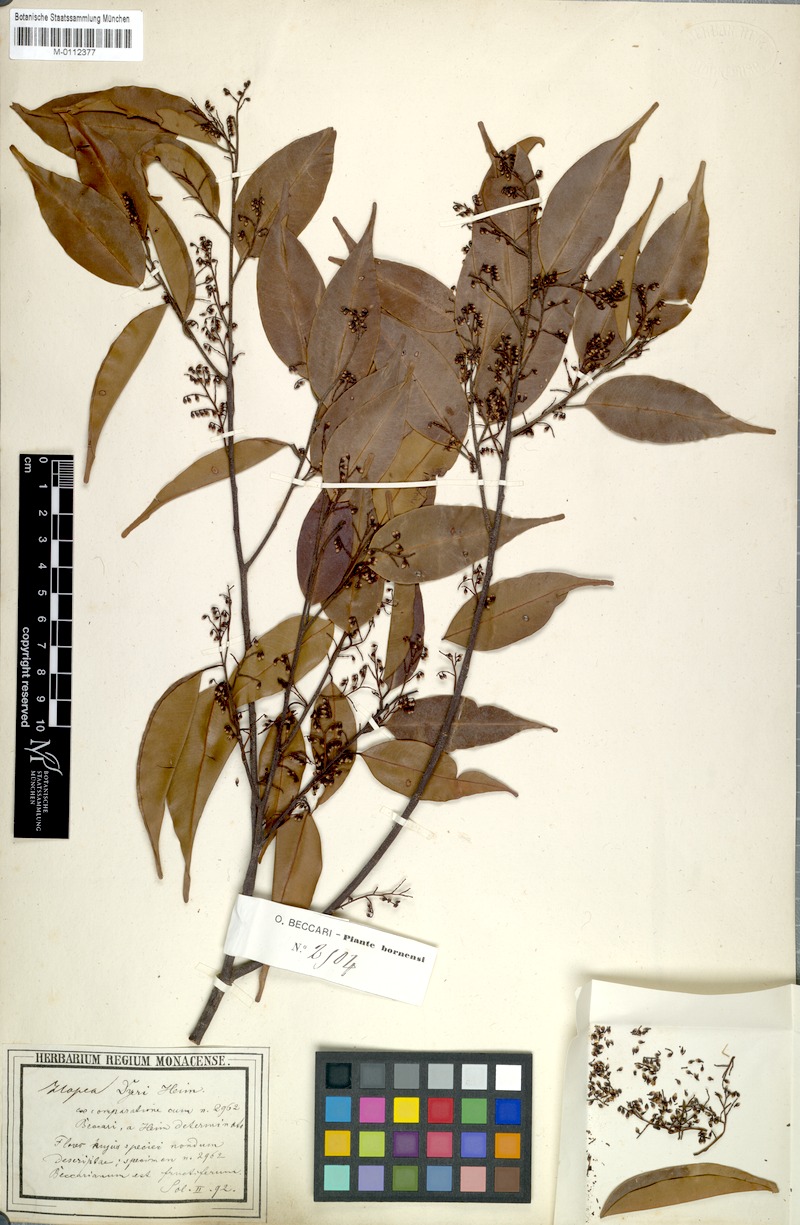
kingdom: Plantae
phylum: Tracheophyta
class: Magnoliopsida
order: Malvales
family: Dipterocarpaceae
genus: Hopea
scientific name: Hopea dyeri
